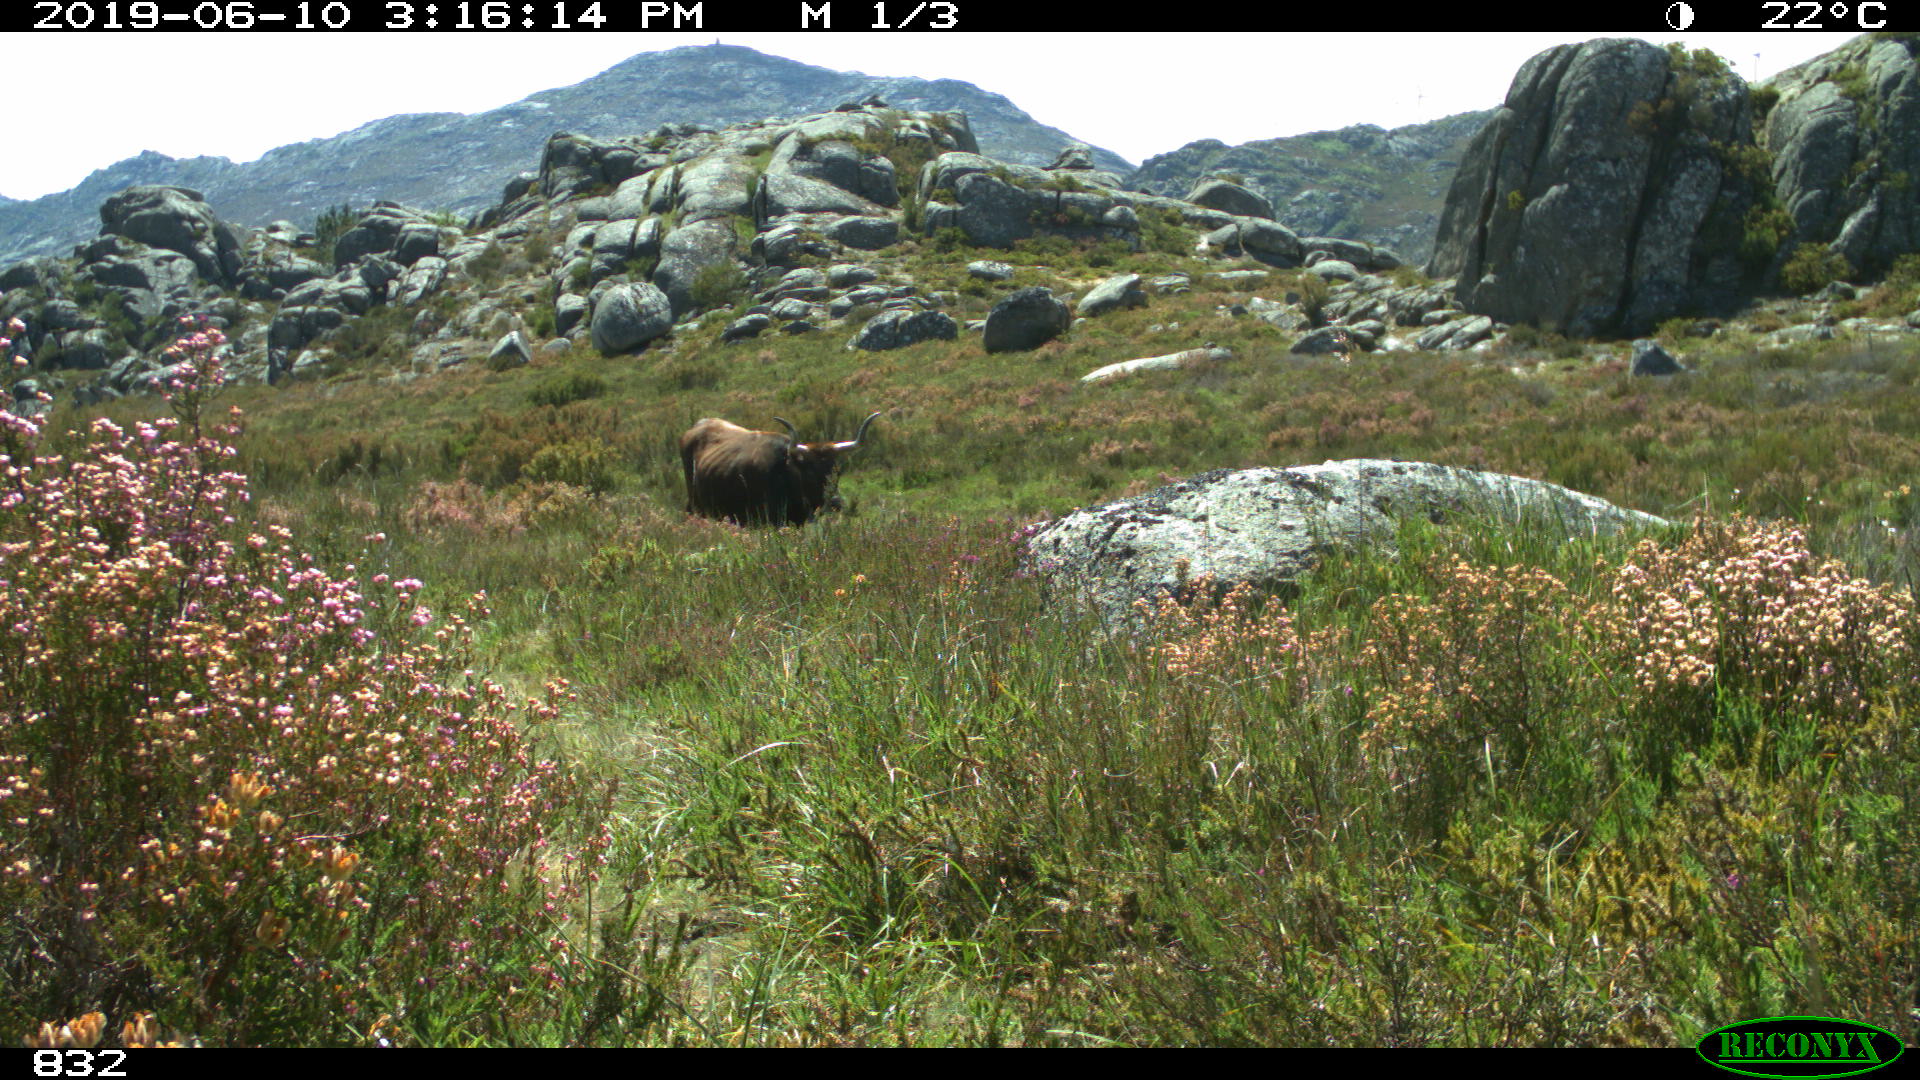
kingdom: Animalia
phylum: Chordata
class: Mammalia
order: Artiodactyla
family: Bovidae
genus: Bos
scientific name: Bos taurus
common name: Domesticated cattle
